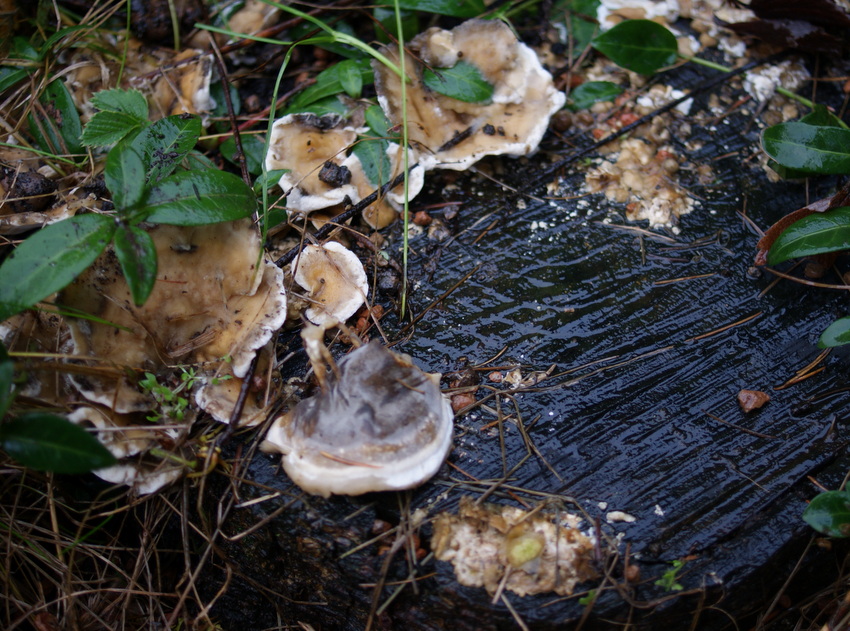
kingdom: Fungi
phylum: Basidiomycota
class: Agaricomycetes
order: Polyporales
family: Phanerochaetaceae
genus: Bjerkandera
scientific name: Bjerkandera adusta
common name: sveden sodporesvamp
